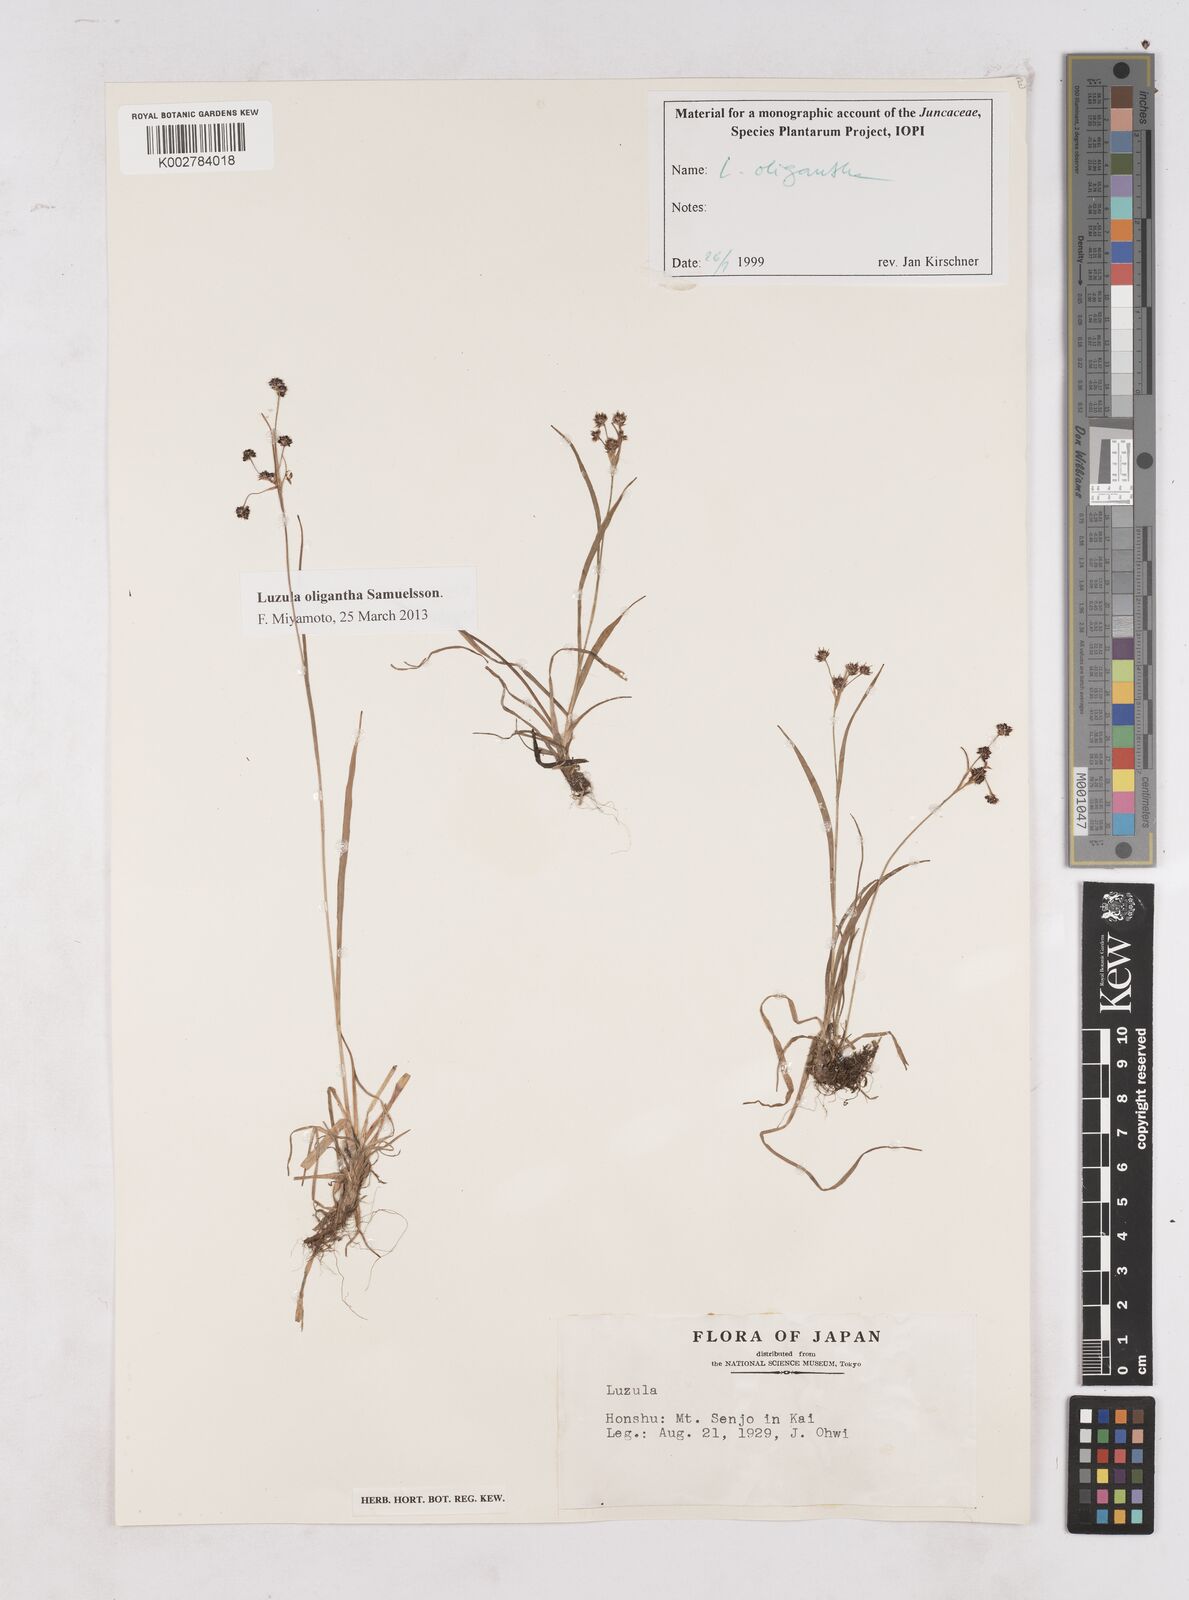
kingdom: Plantae
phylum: Tracheophyta
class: Liliopsida
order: Poales
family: Juncaceae
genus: Luzula
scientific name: Luzula oligantha
